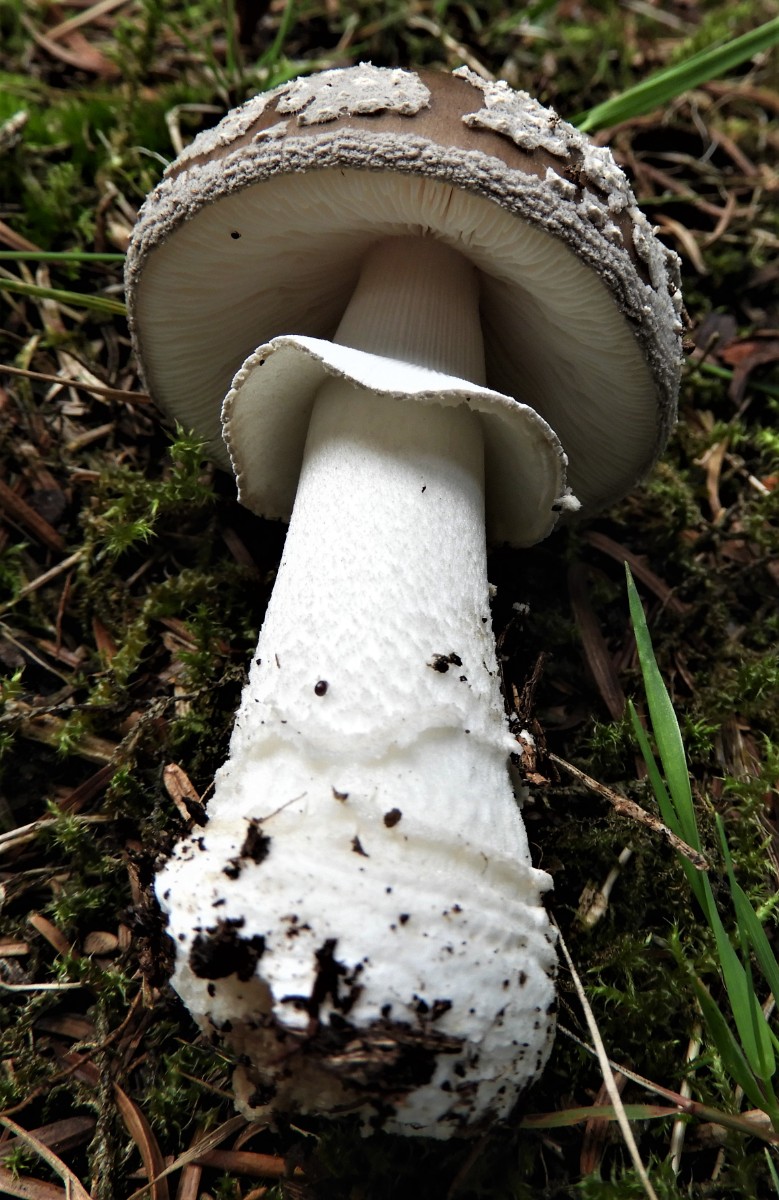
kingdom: Fungi
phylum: Basidiomycota
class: Agaricomycetes
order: Agaricales
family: Amanitaceae
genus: Amanita
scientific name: Amanita
